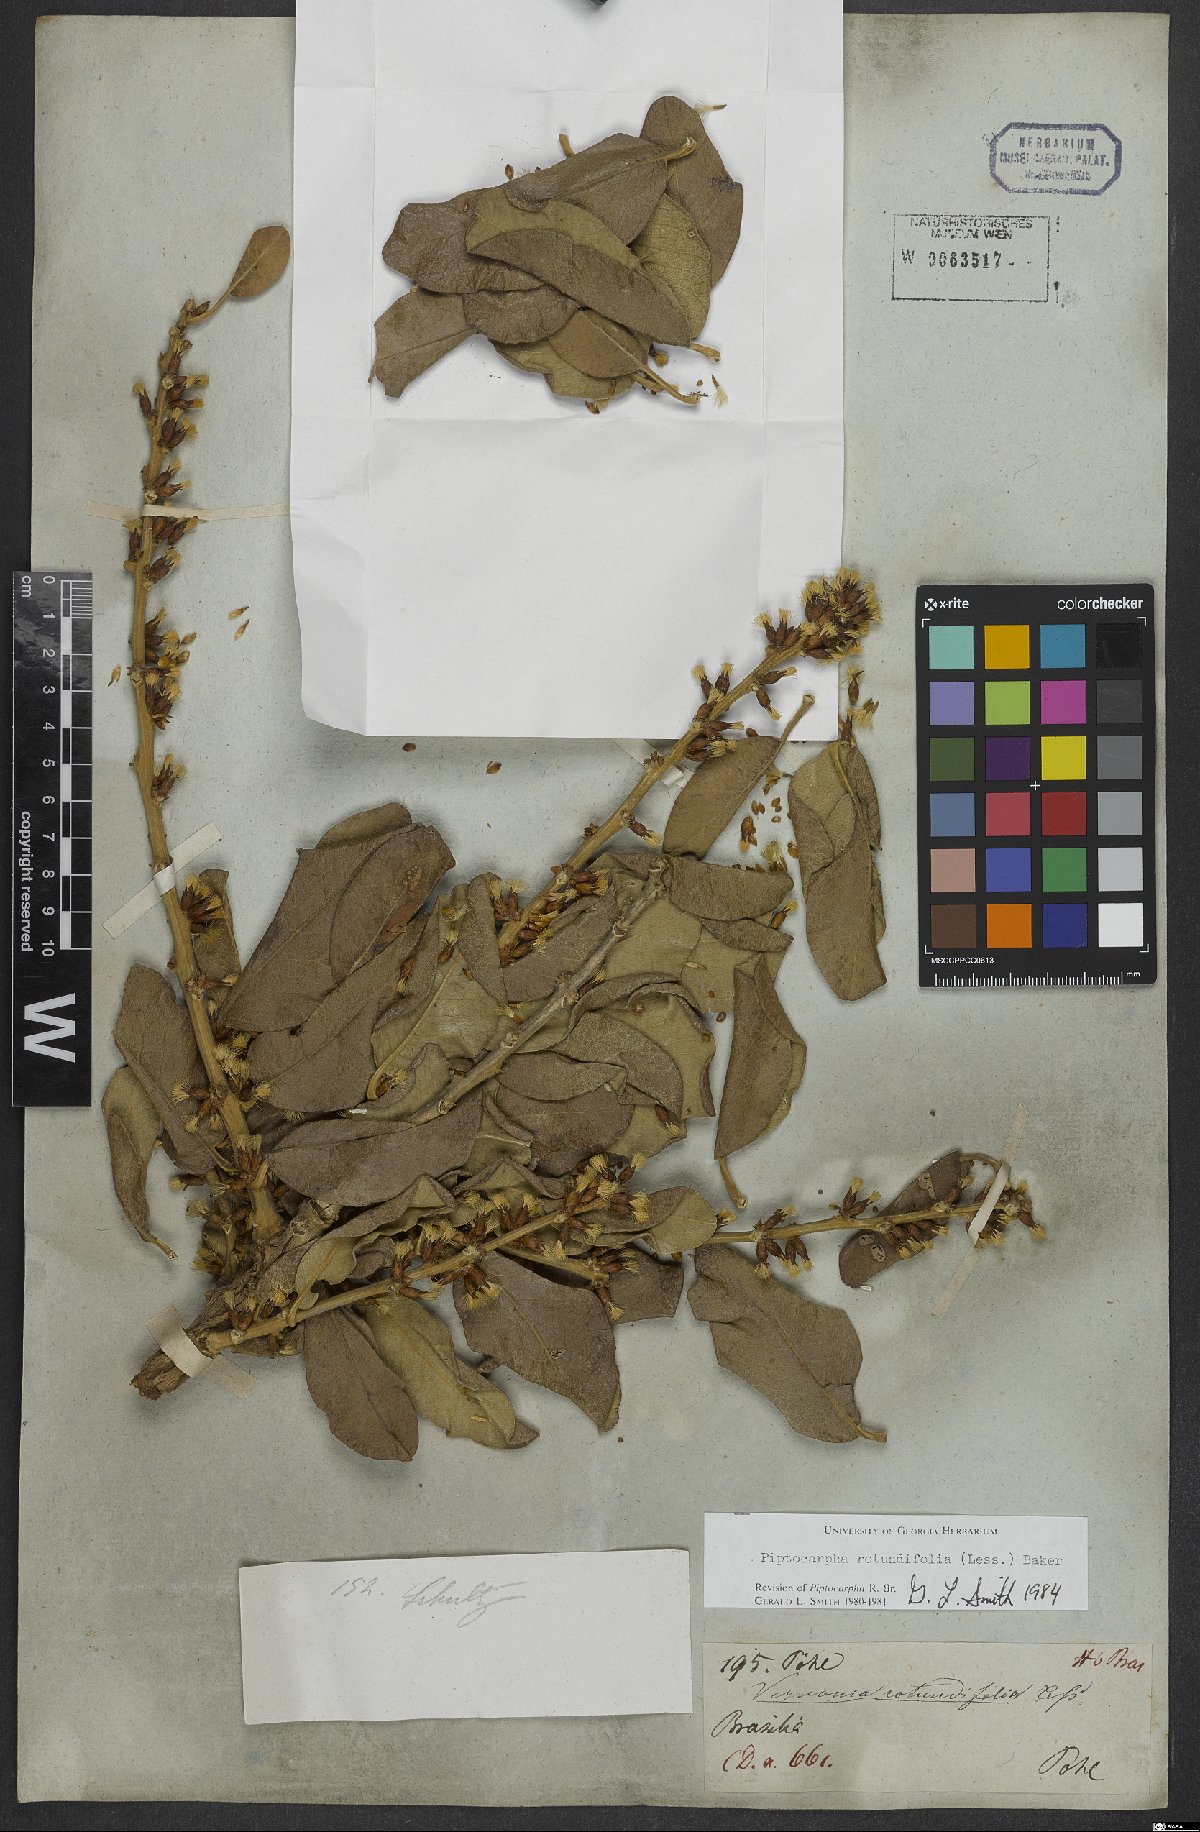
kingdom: Plantae
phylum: Tracheophyta
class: Magnoliopsida
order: Asterales
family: Asteraceae
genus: Piptocarpha
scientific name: Piptocarpha rotundifolia
